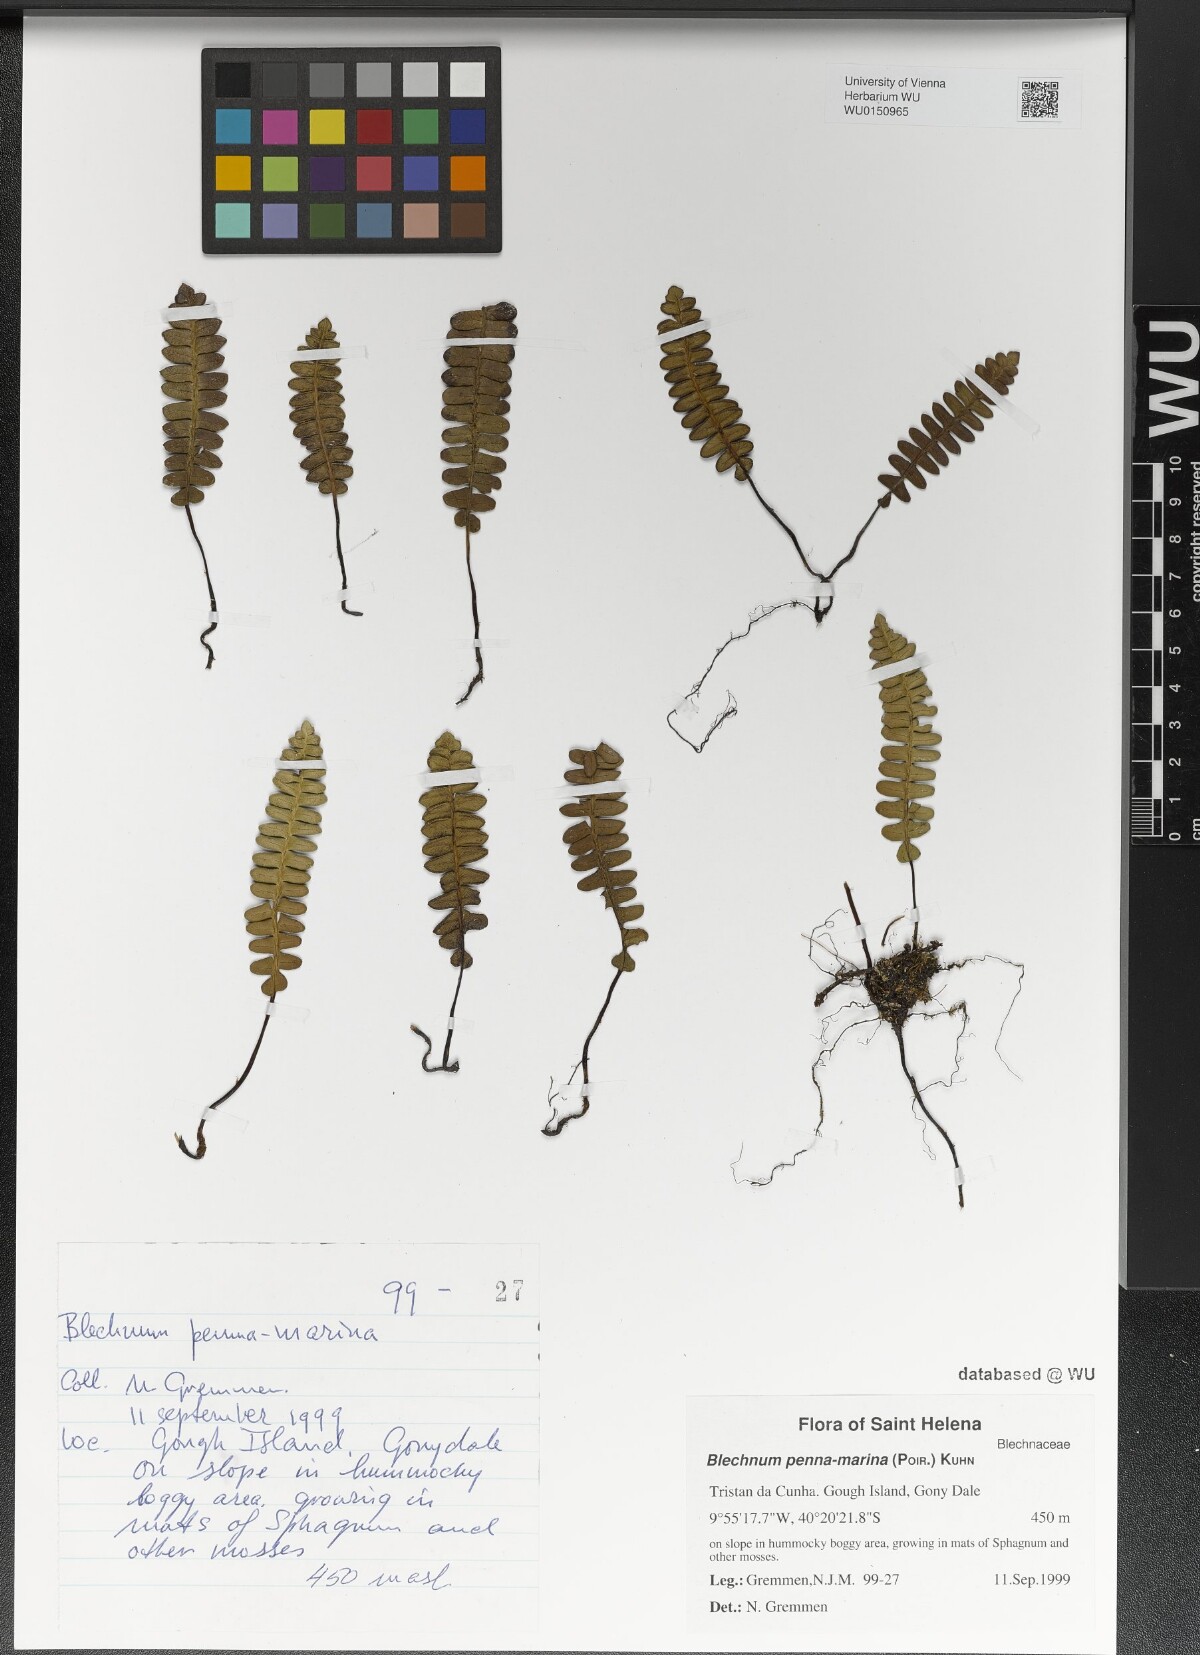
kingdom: Plantae
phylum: Tracheophyta
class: Polypodiopsida
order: Polypodiales
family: Blechnaceae
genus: Austroblechnum
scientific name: Austroblechnum penna-marina
